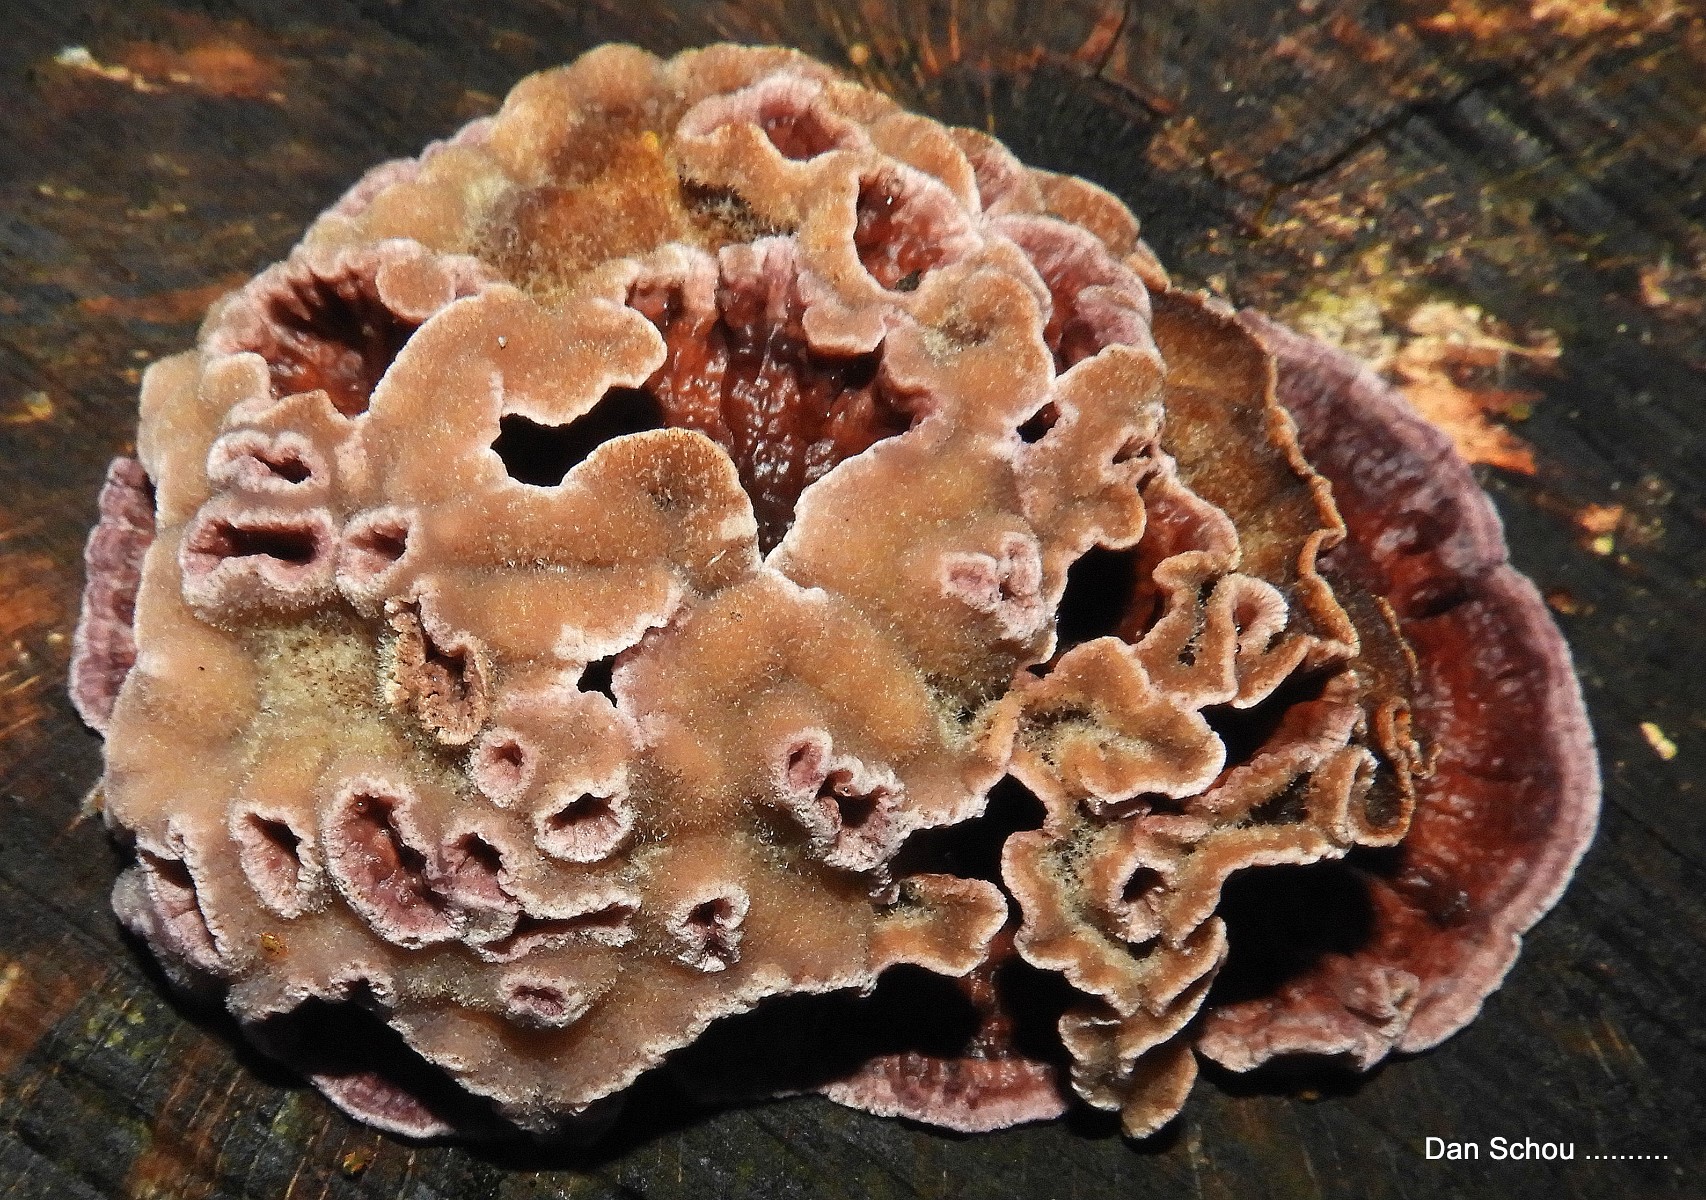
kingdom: Fungi
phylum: Basidiomycota
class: Agaricomycetes
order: Agaricales
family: Cyphellaceae
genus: Chondrostereum
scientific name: Chondrostereum purpureum
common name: purpurlædersvamp
